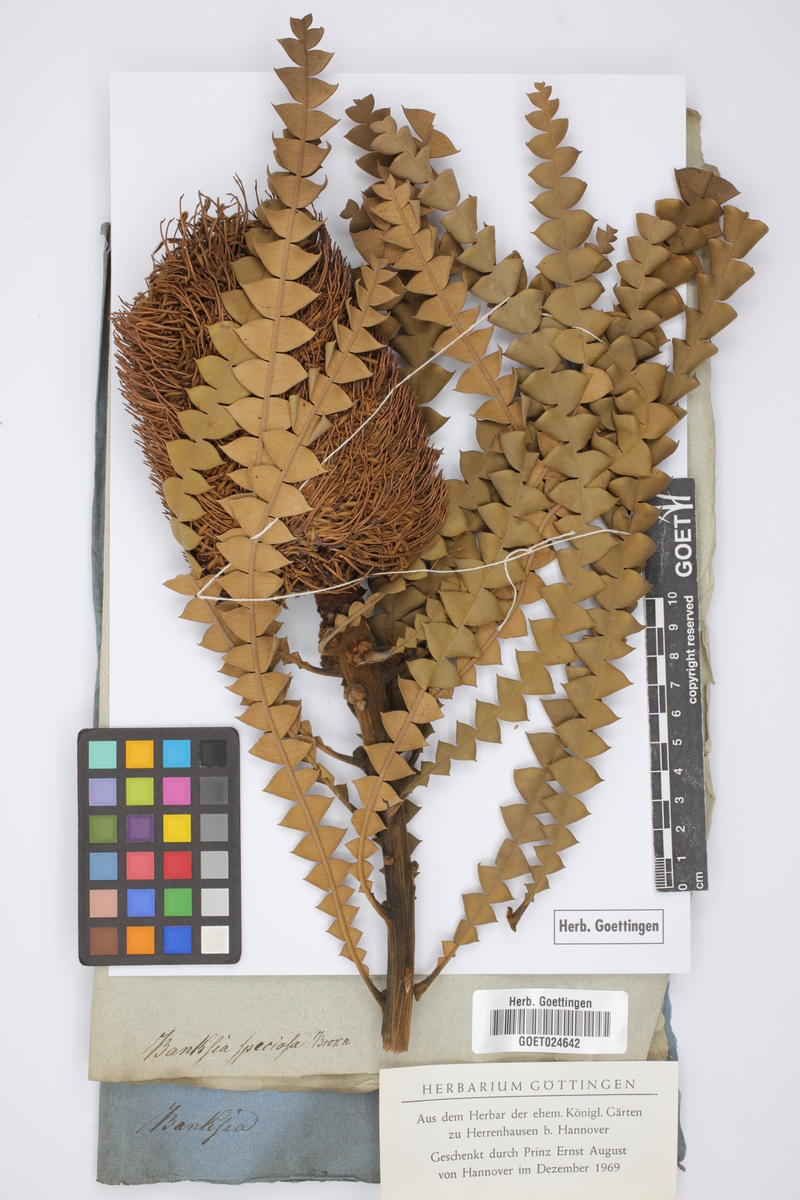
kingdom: Plantae
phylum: Tracheophyta
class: Magnoliopsida
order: Proteales
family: Proteaceae
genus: Banksia
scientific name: Banksia speciosa
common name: Showy banksia
